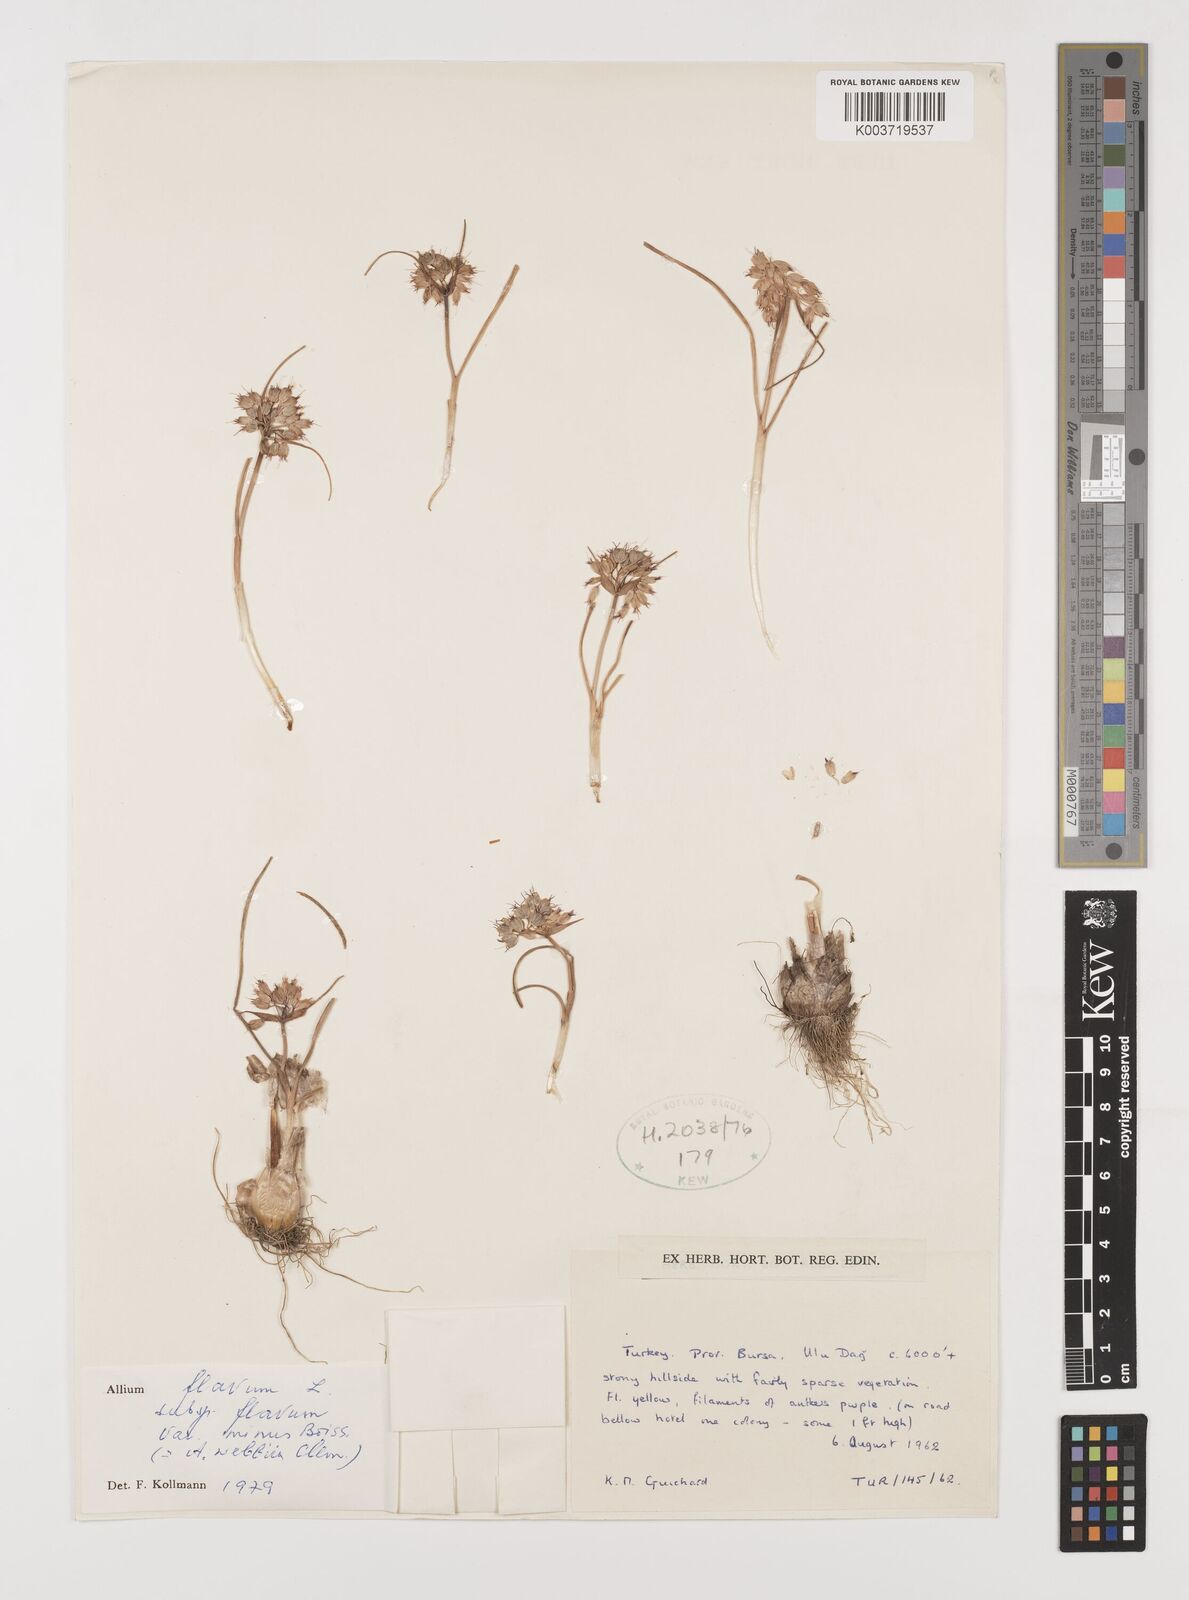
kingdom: Plantae
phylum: Tracheophyta
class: Liliopsida
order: Asparagales
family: Amaryllidaceae
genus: Allium
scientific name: Allium flavum
